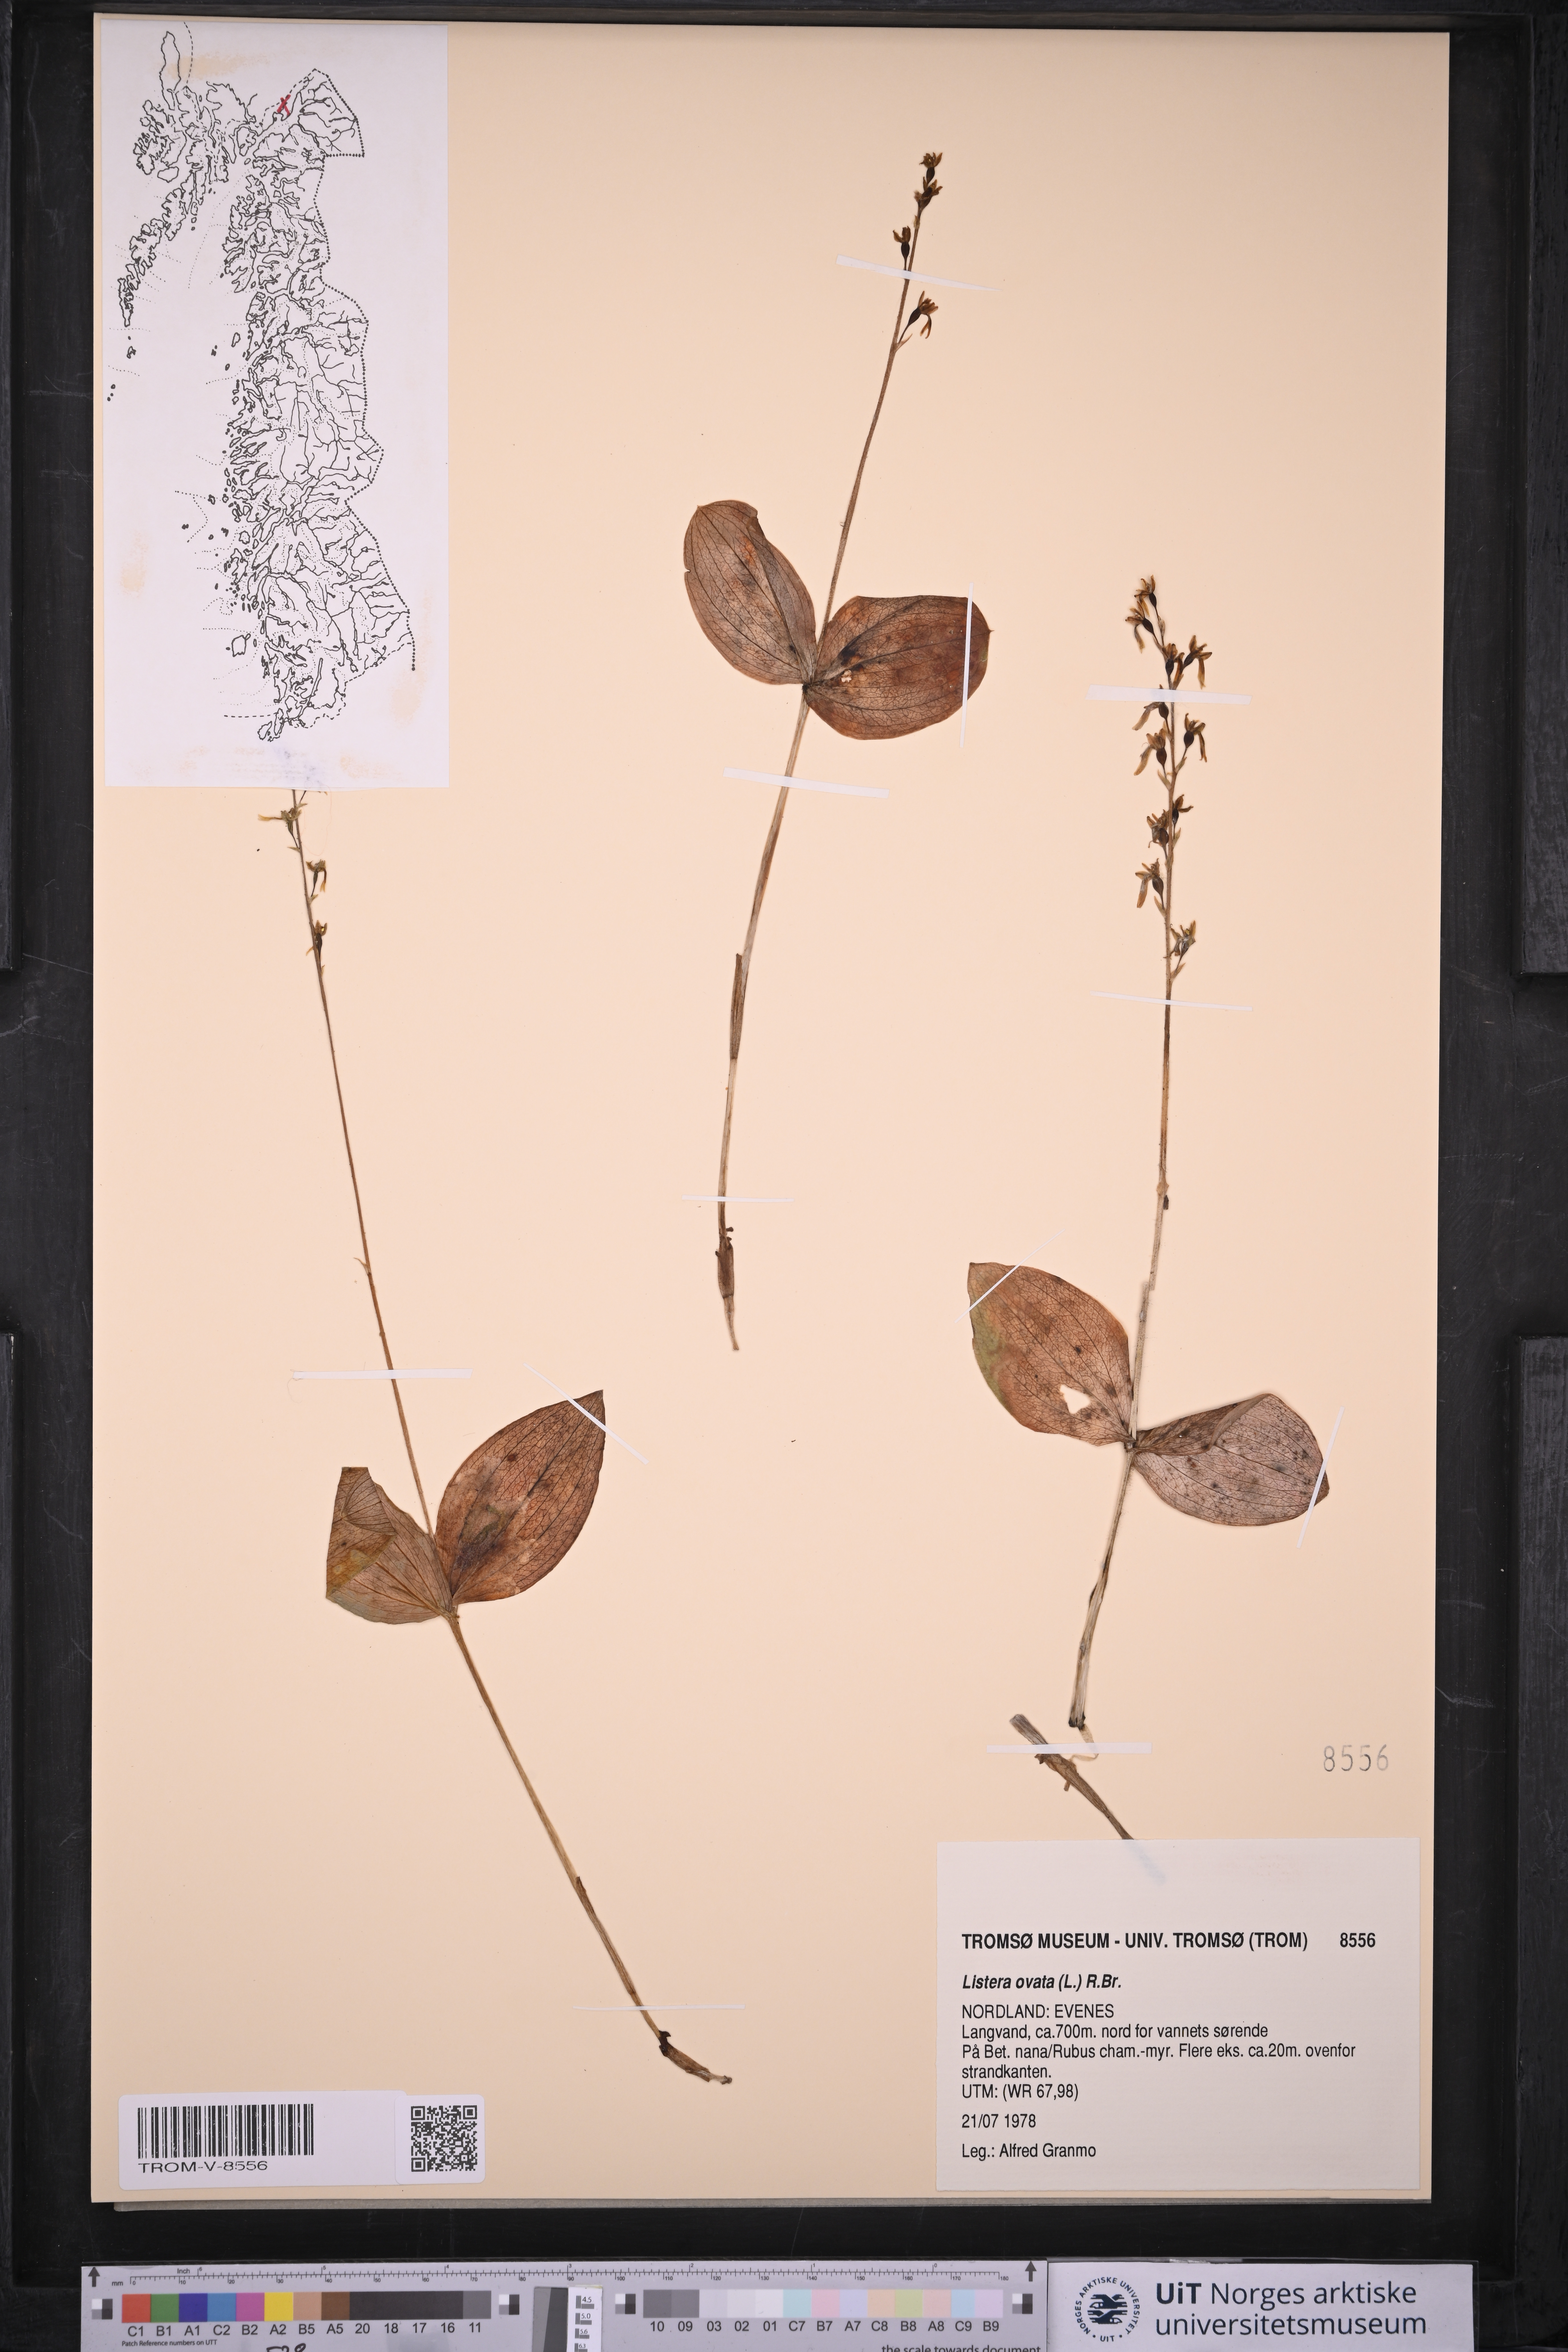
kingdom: Plantae
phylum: Tracheophyta
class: Liliopsida
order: Asparagales
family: Orchidaceae
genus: Neottia
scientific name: Neottia ovata
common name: Common twayblade
